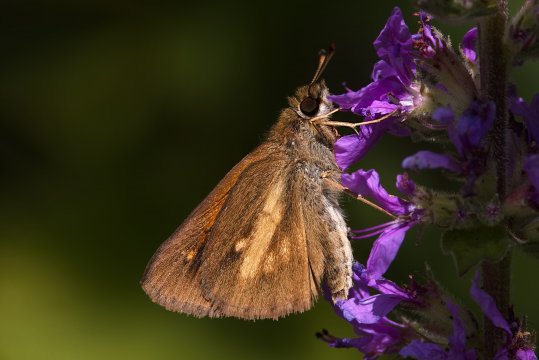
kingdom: Animalia
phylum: Arthropoda
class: Insecta
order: Lepidoptera
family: Hesperiidae
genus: Poanes
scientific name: Poanes viator
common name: Broad-winged Skipper
